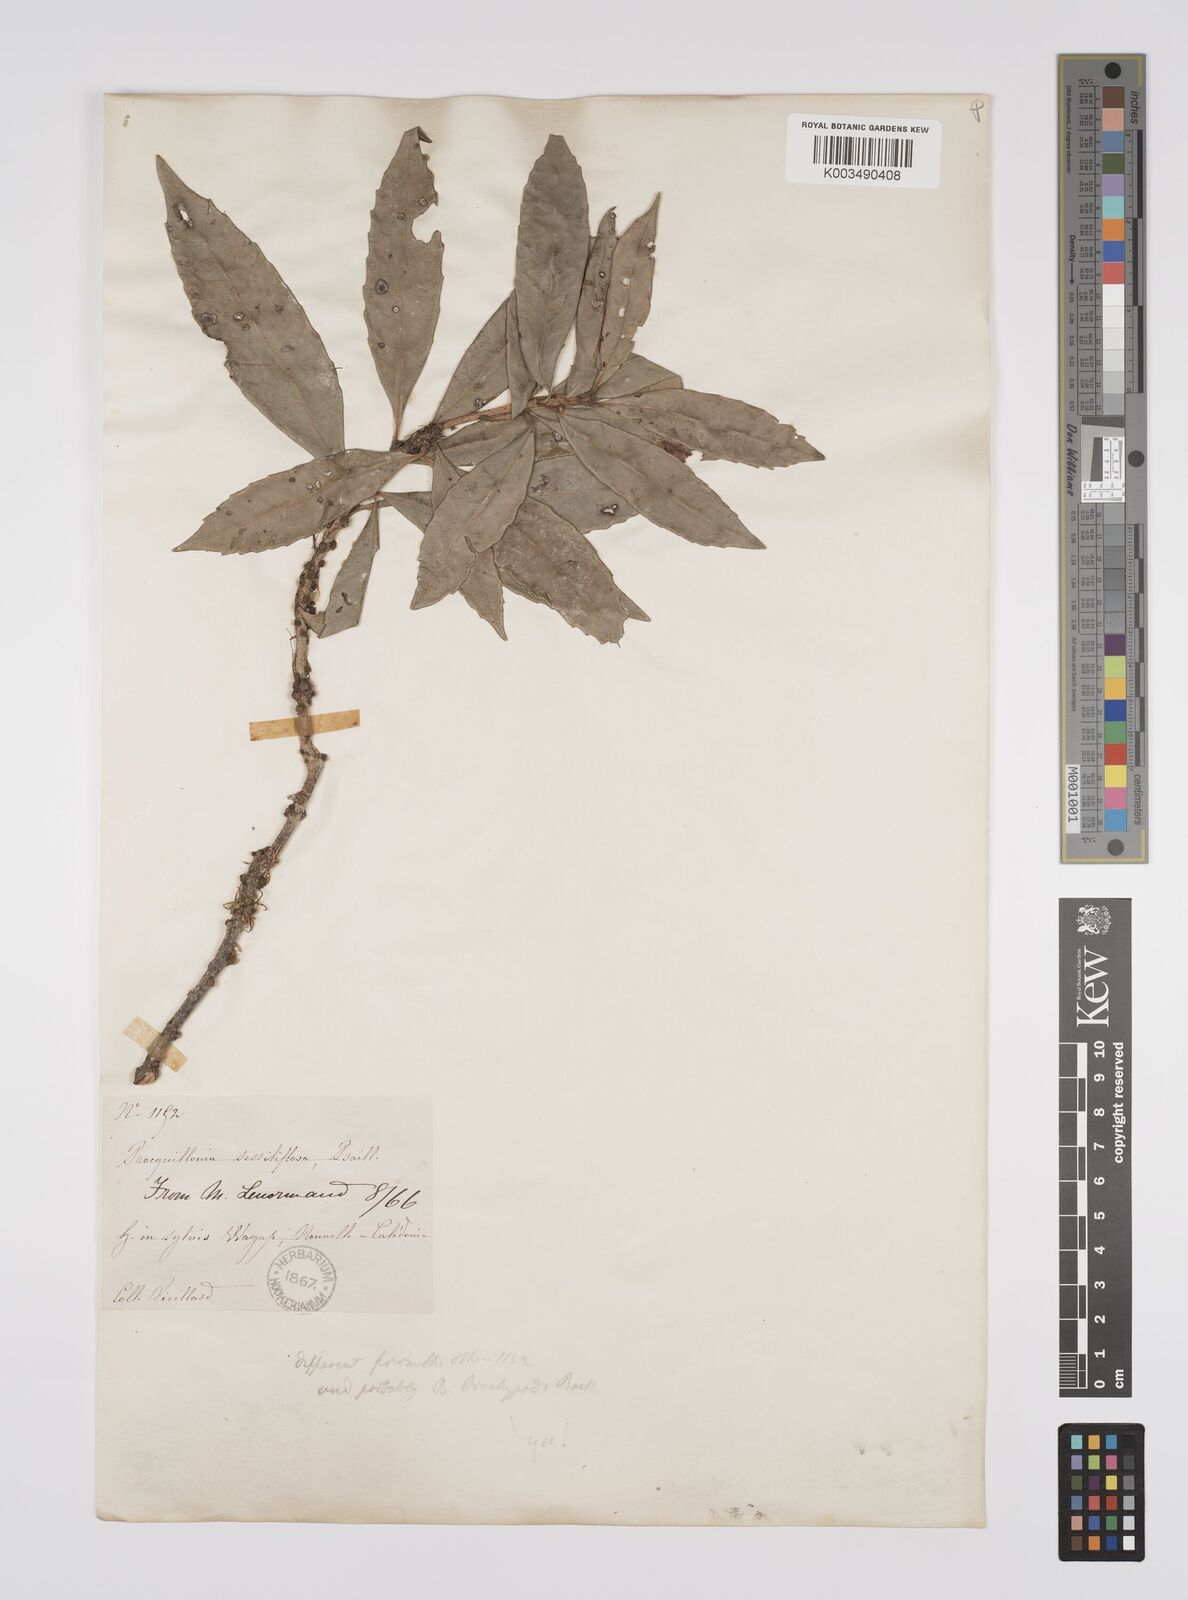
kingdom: Plantae
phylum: Tracheophyta
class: Magnoliopsida
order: Malpighiales
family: Euphorbiaceae
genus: Bocquillonia
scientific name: Bocquillonia brachypoda
